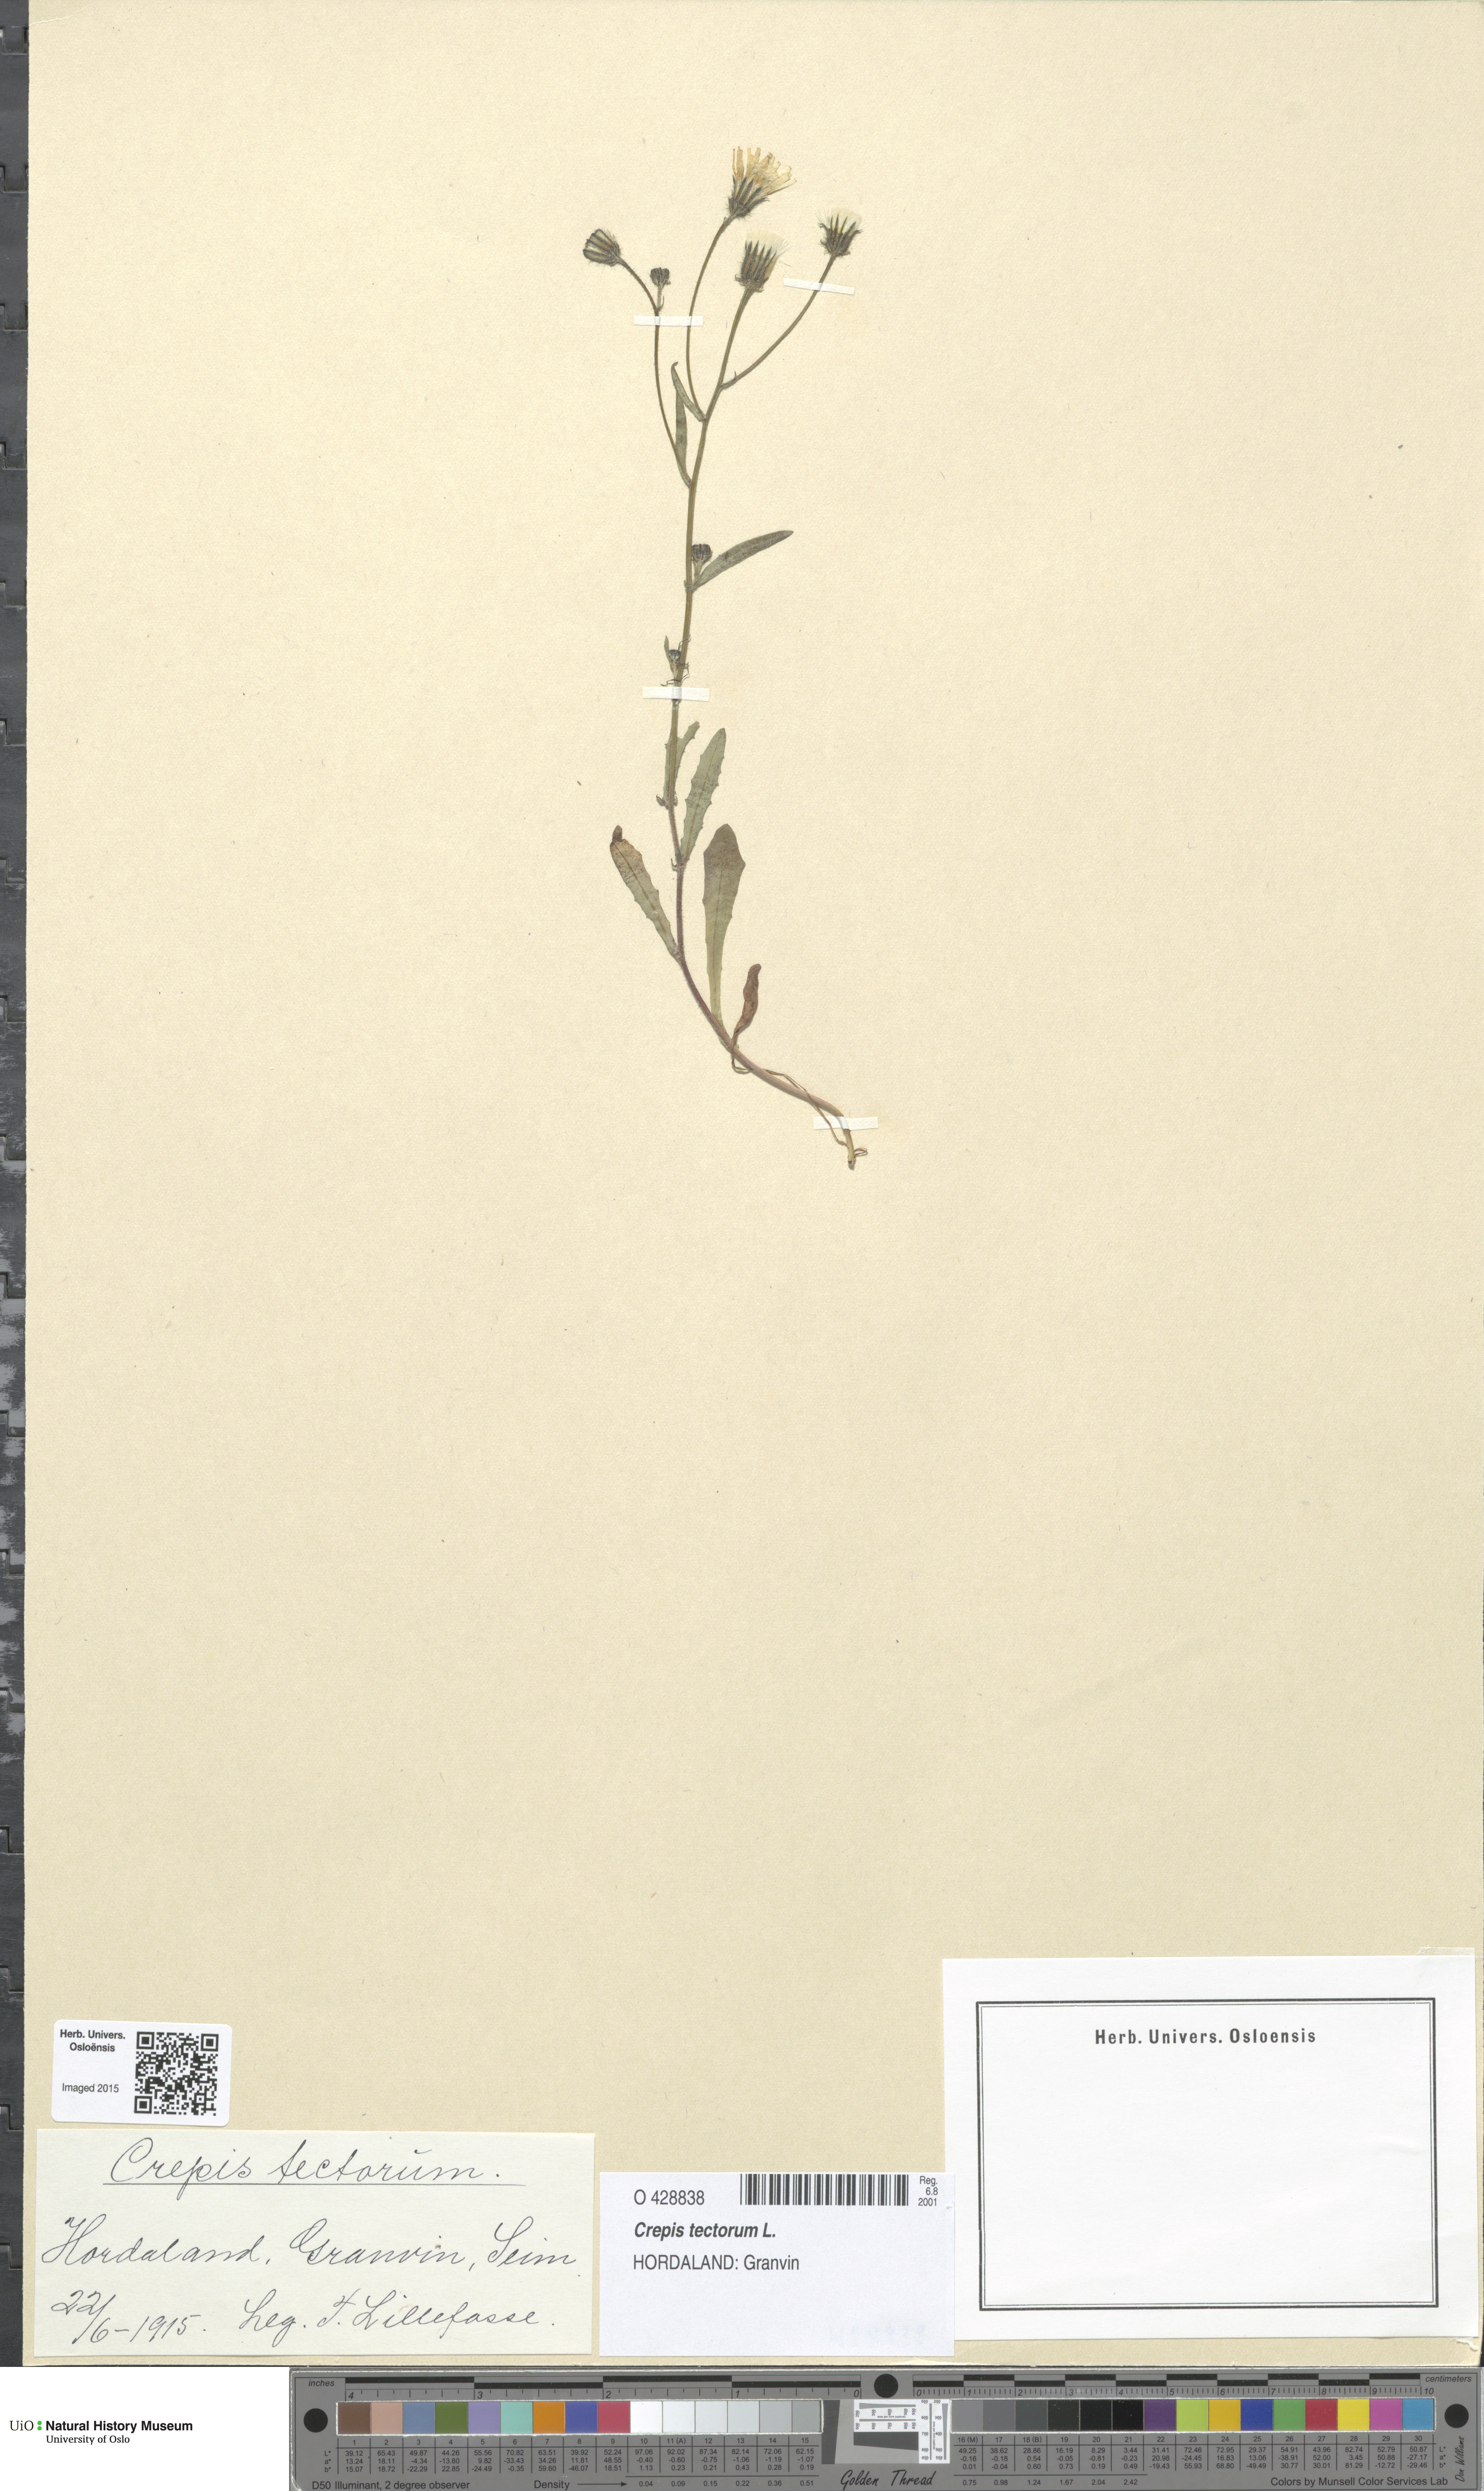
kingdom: Plantae
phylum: Tracheophyta
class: Magnoliopsida
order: Asterales
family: Asteraceae
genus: Crepis
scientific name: Crepis tectorum
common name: Narrow-leaved hawk's-beard
